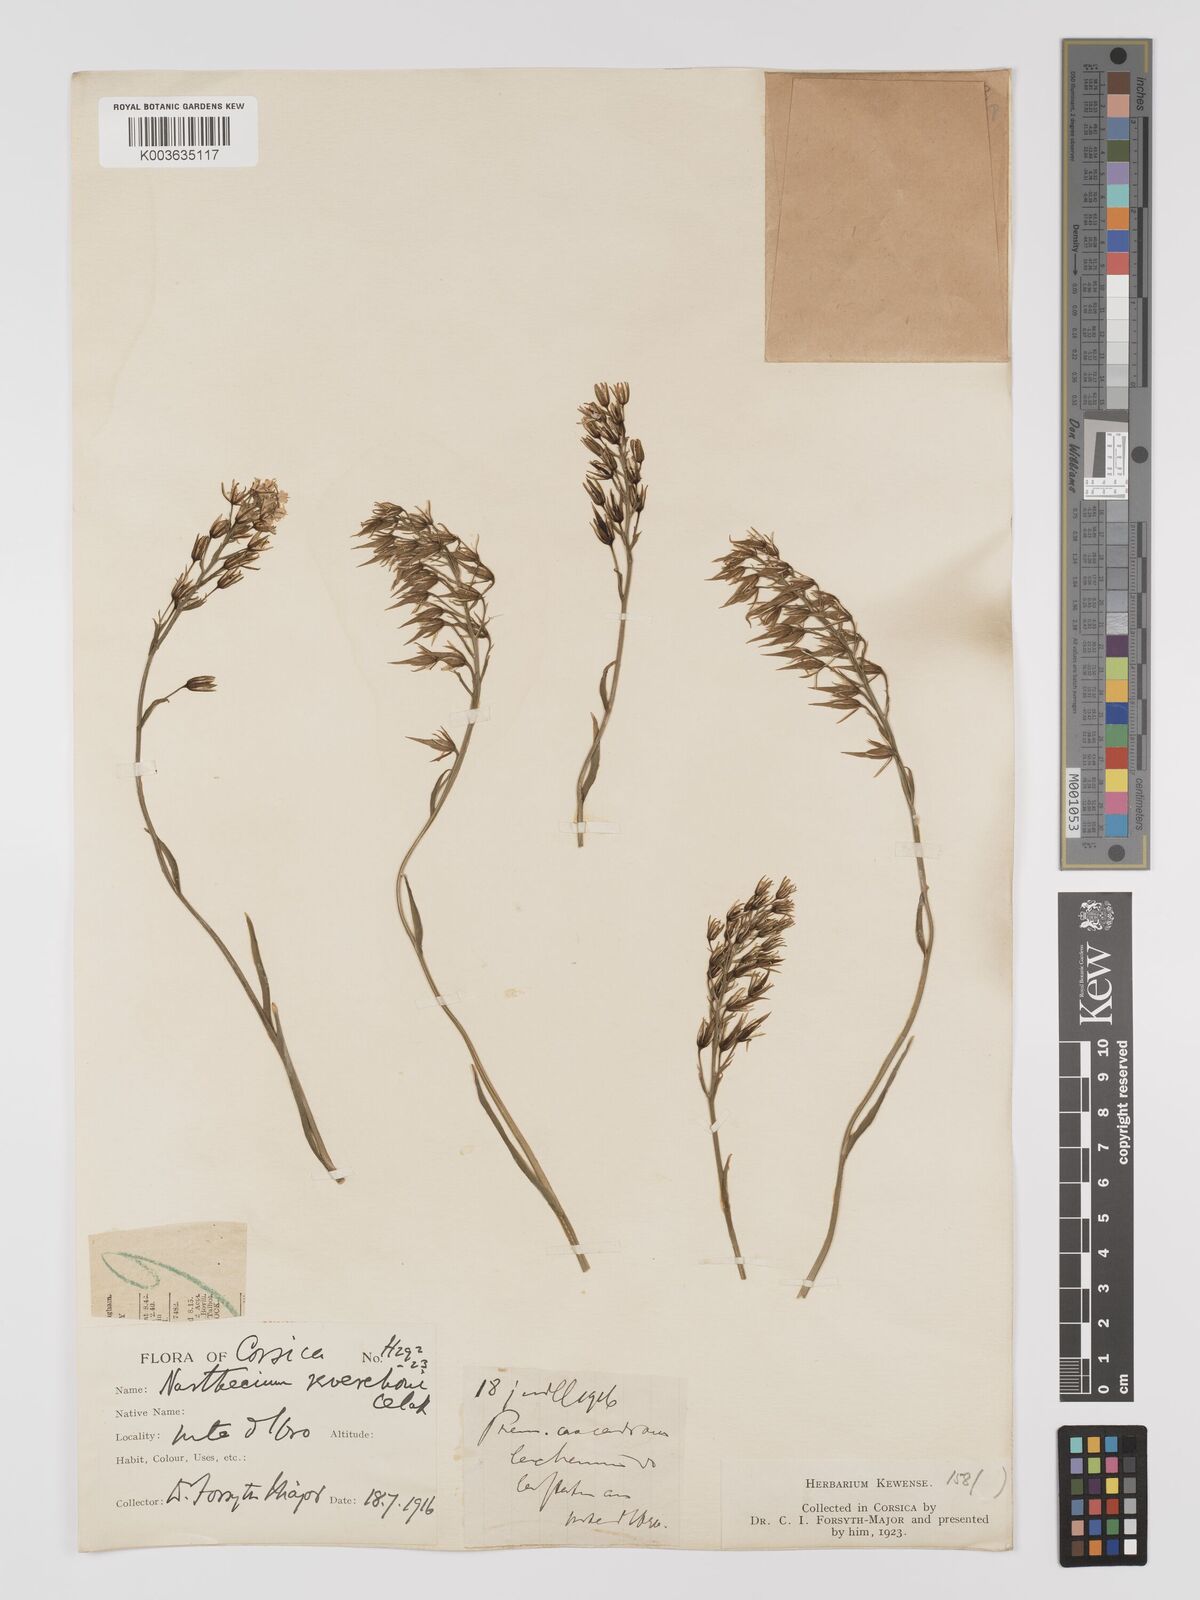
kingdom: Plantae
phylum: Tracheophyta
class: Liliopsida
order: Dioscoreales
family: Nartheciaceae
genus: Narthecium
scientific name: Narthecium reverchonii
